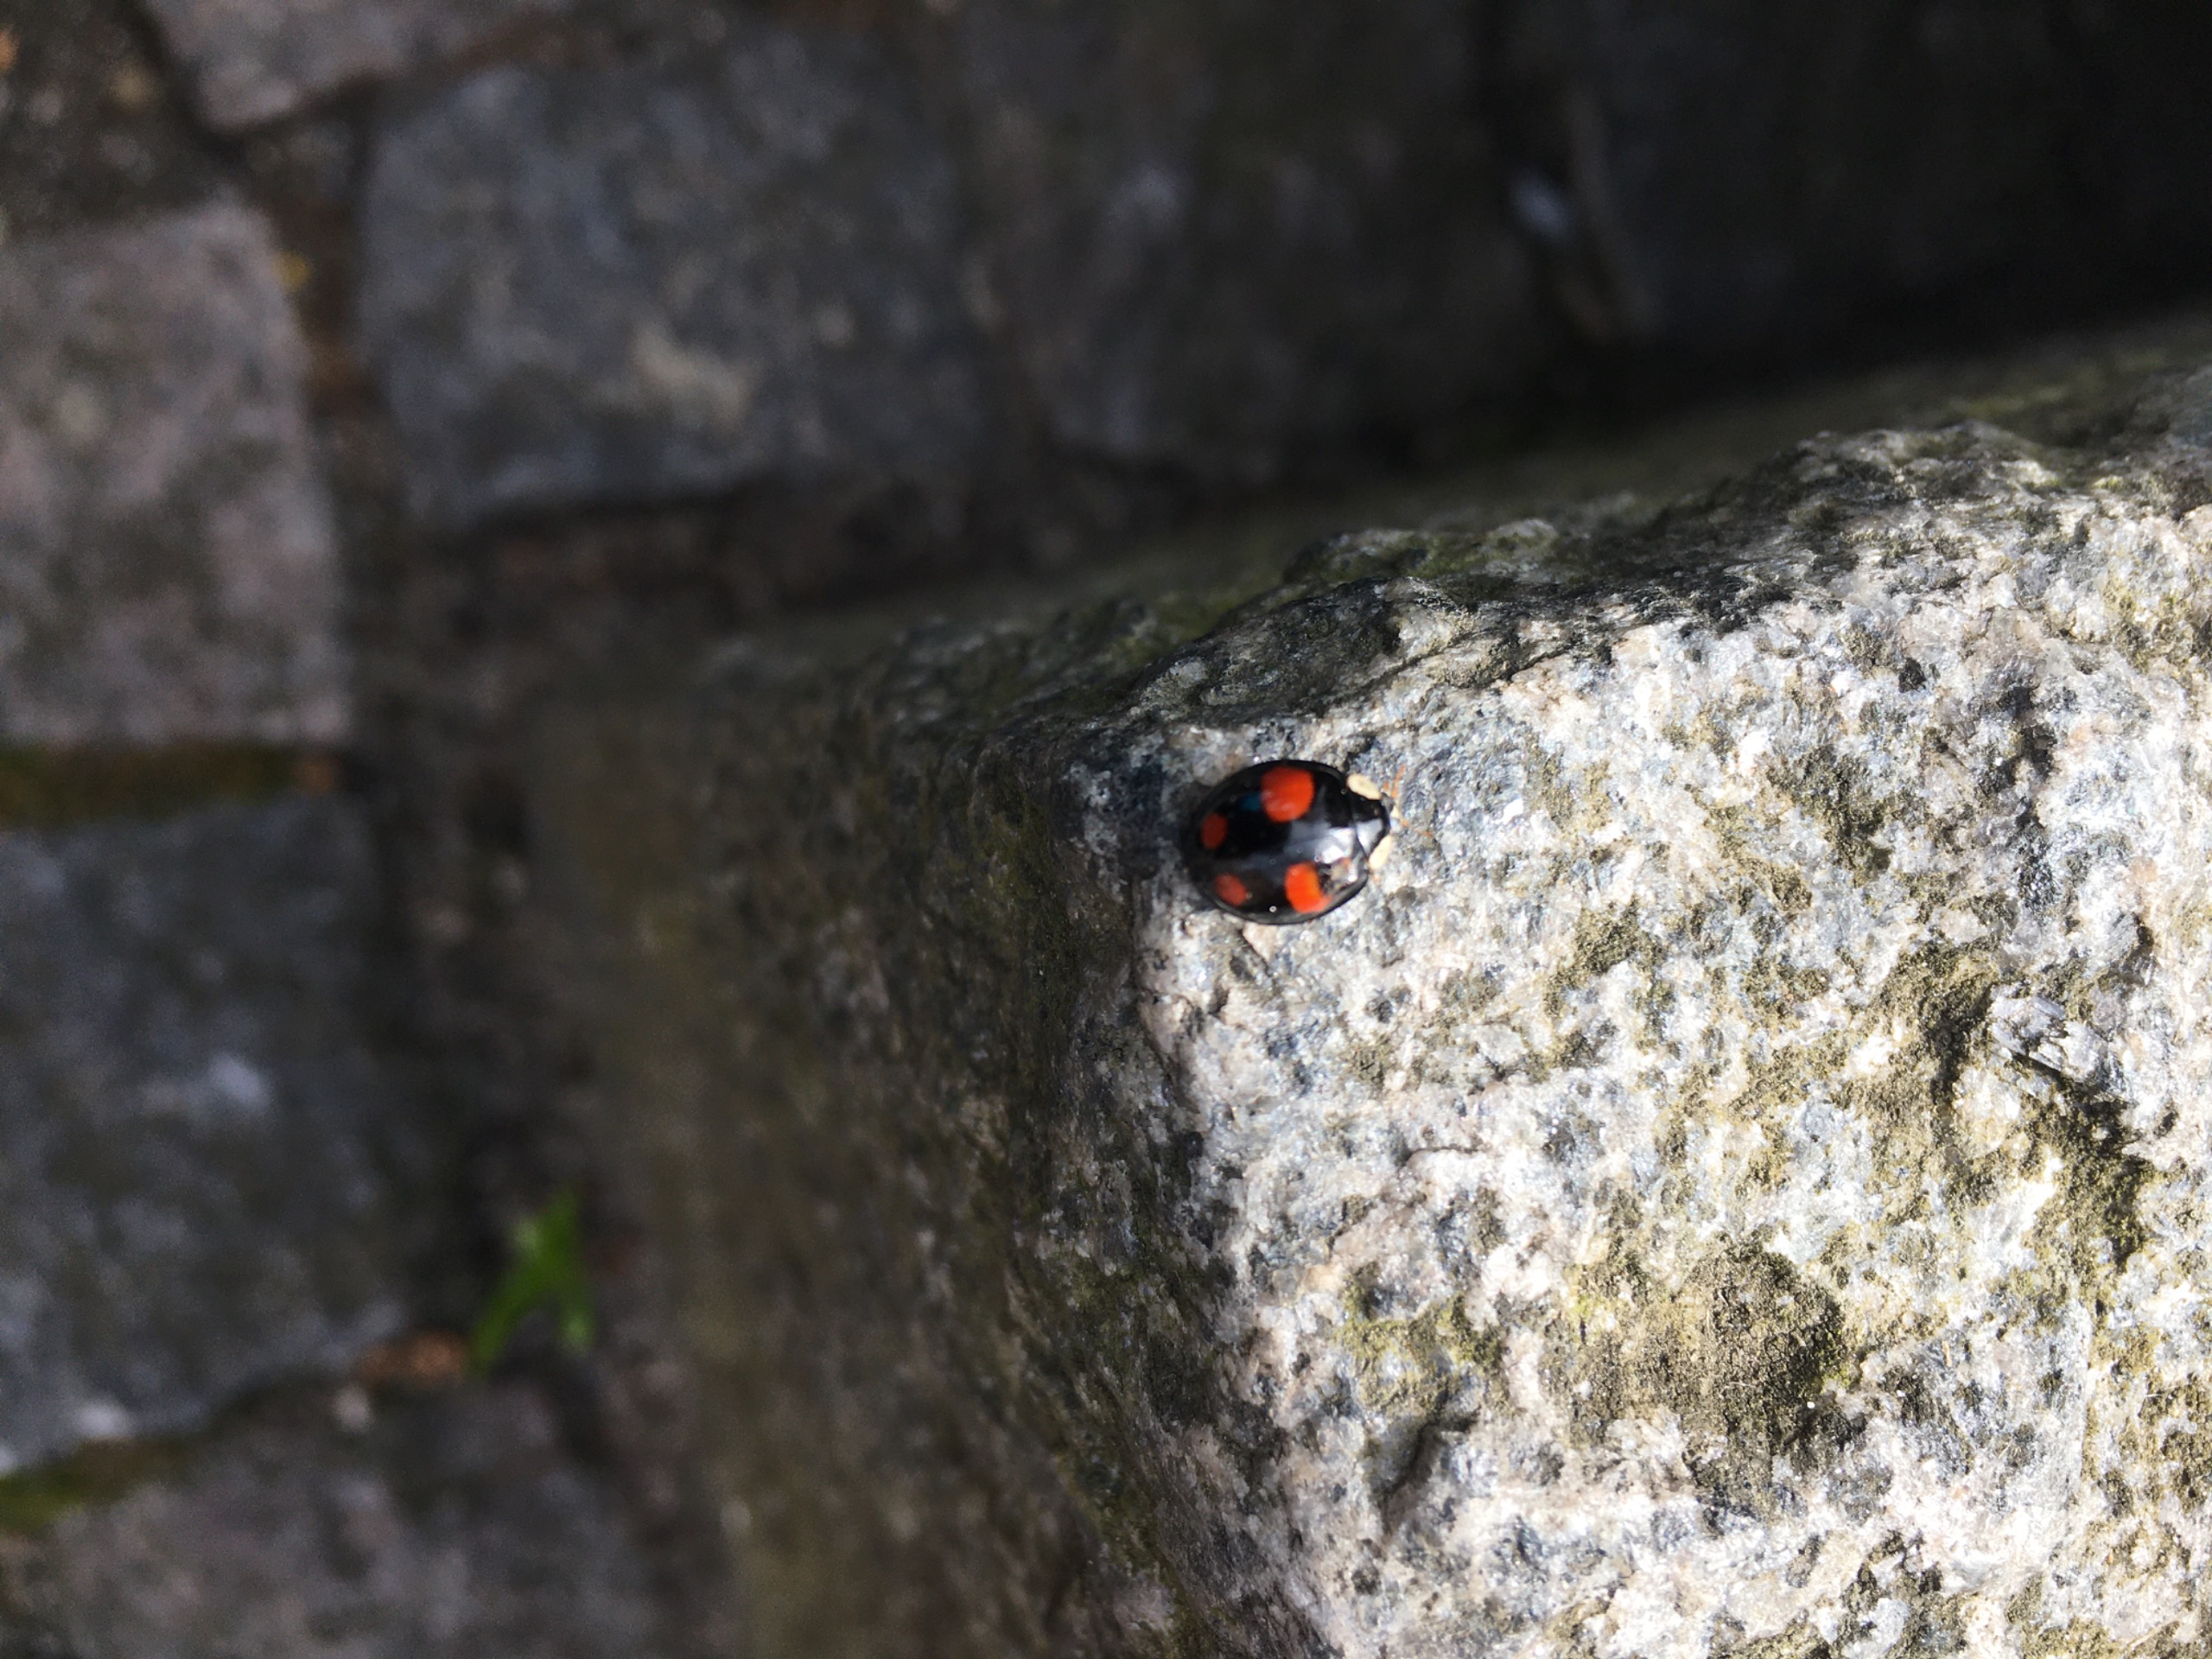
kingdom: Animalia
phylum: Arthropoda
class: Insecta
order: Coleoptera
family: Coccinellidae
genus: Harmonia
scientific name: Harmonia axyridis
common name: Harlekinmariehøne
